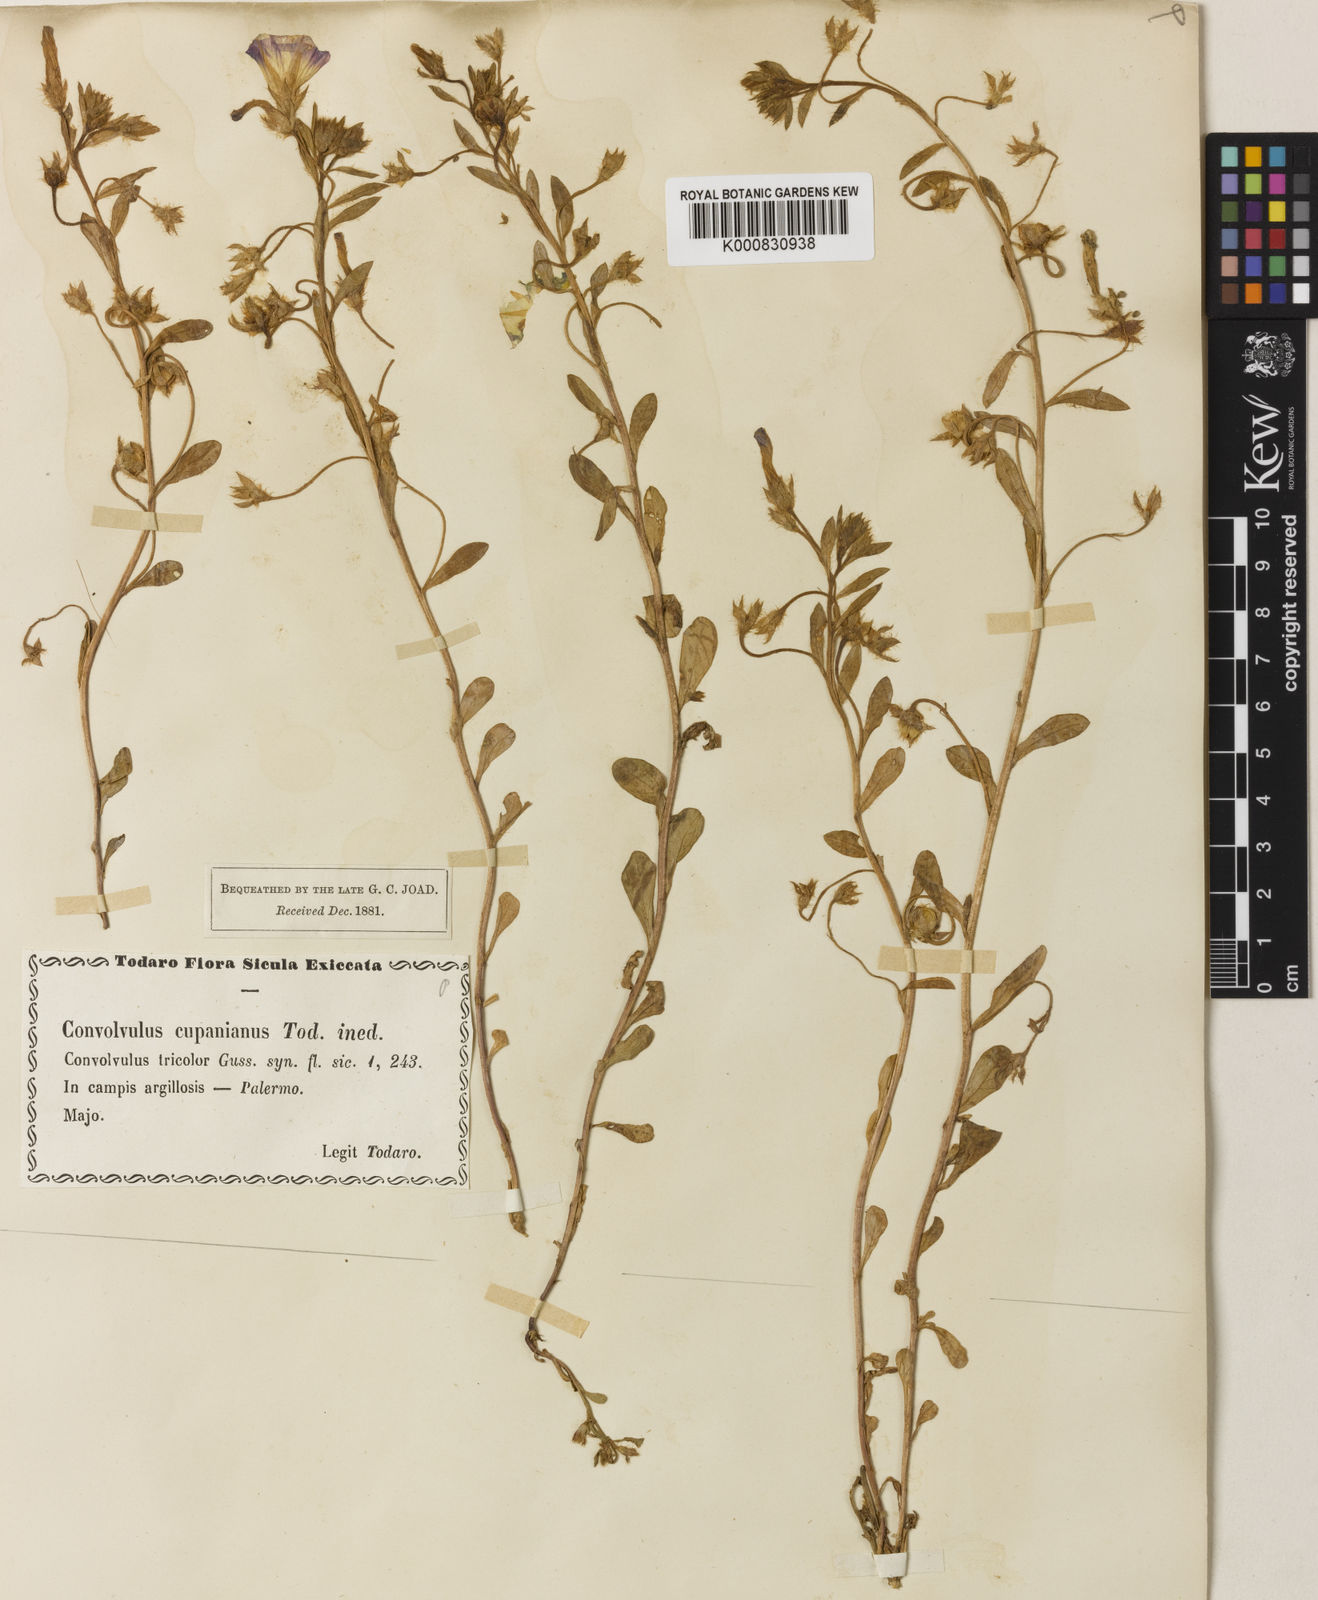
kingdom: Plantae
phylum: Tracheophyta
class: Magnoliopsida
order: Solanales
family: Convolvulaceae
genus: Convolvulus
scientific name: Convolvulus tricolor
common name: Dwarf morning-glory
